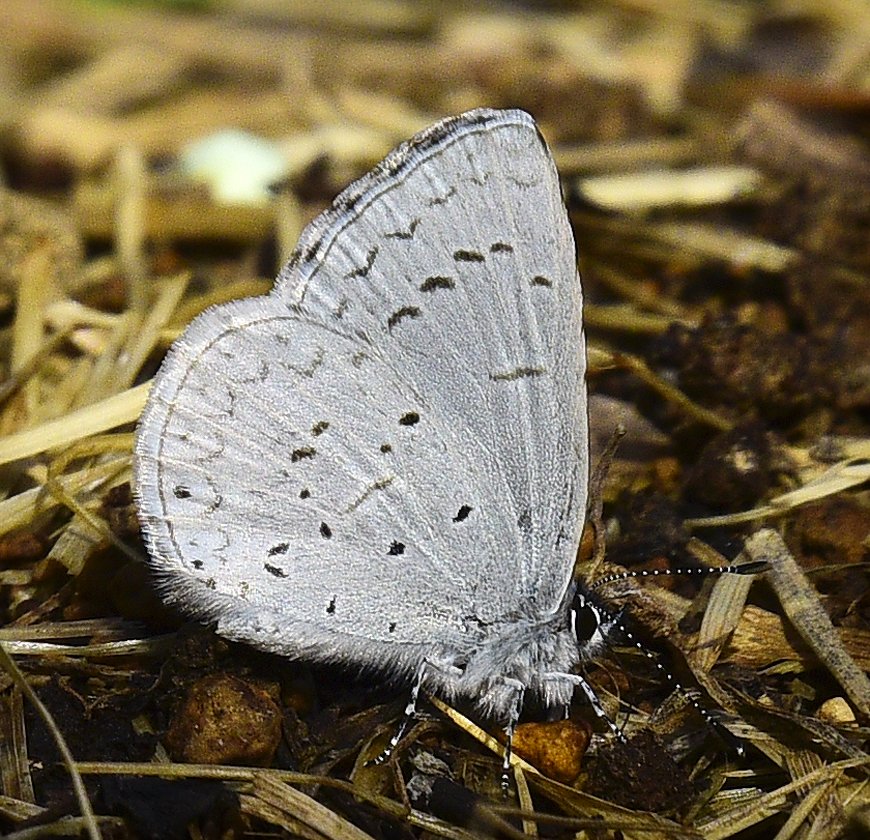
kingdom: Animalia
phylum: Arthropoda
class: Insecta
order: Lepidoptera
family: Lycaenidae
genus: Celastrina
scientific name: Celastrina ladon
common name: Echo Azure
